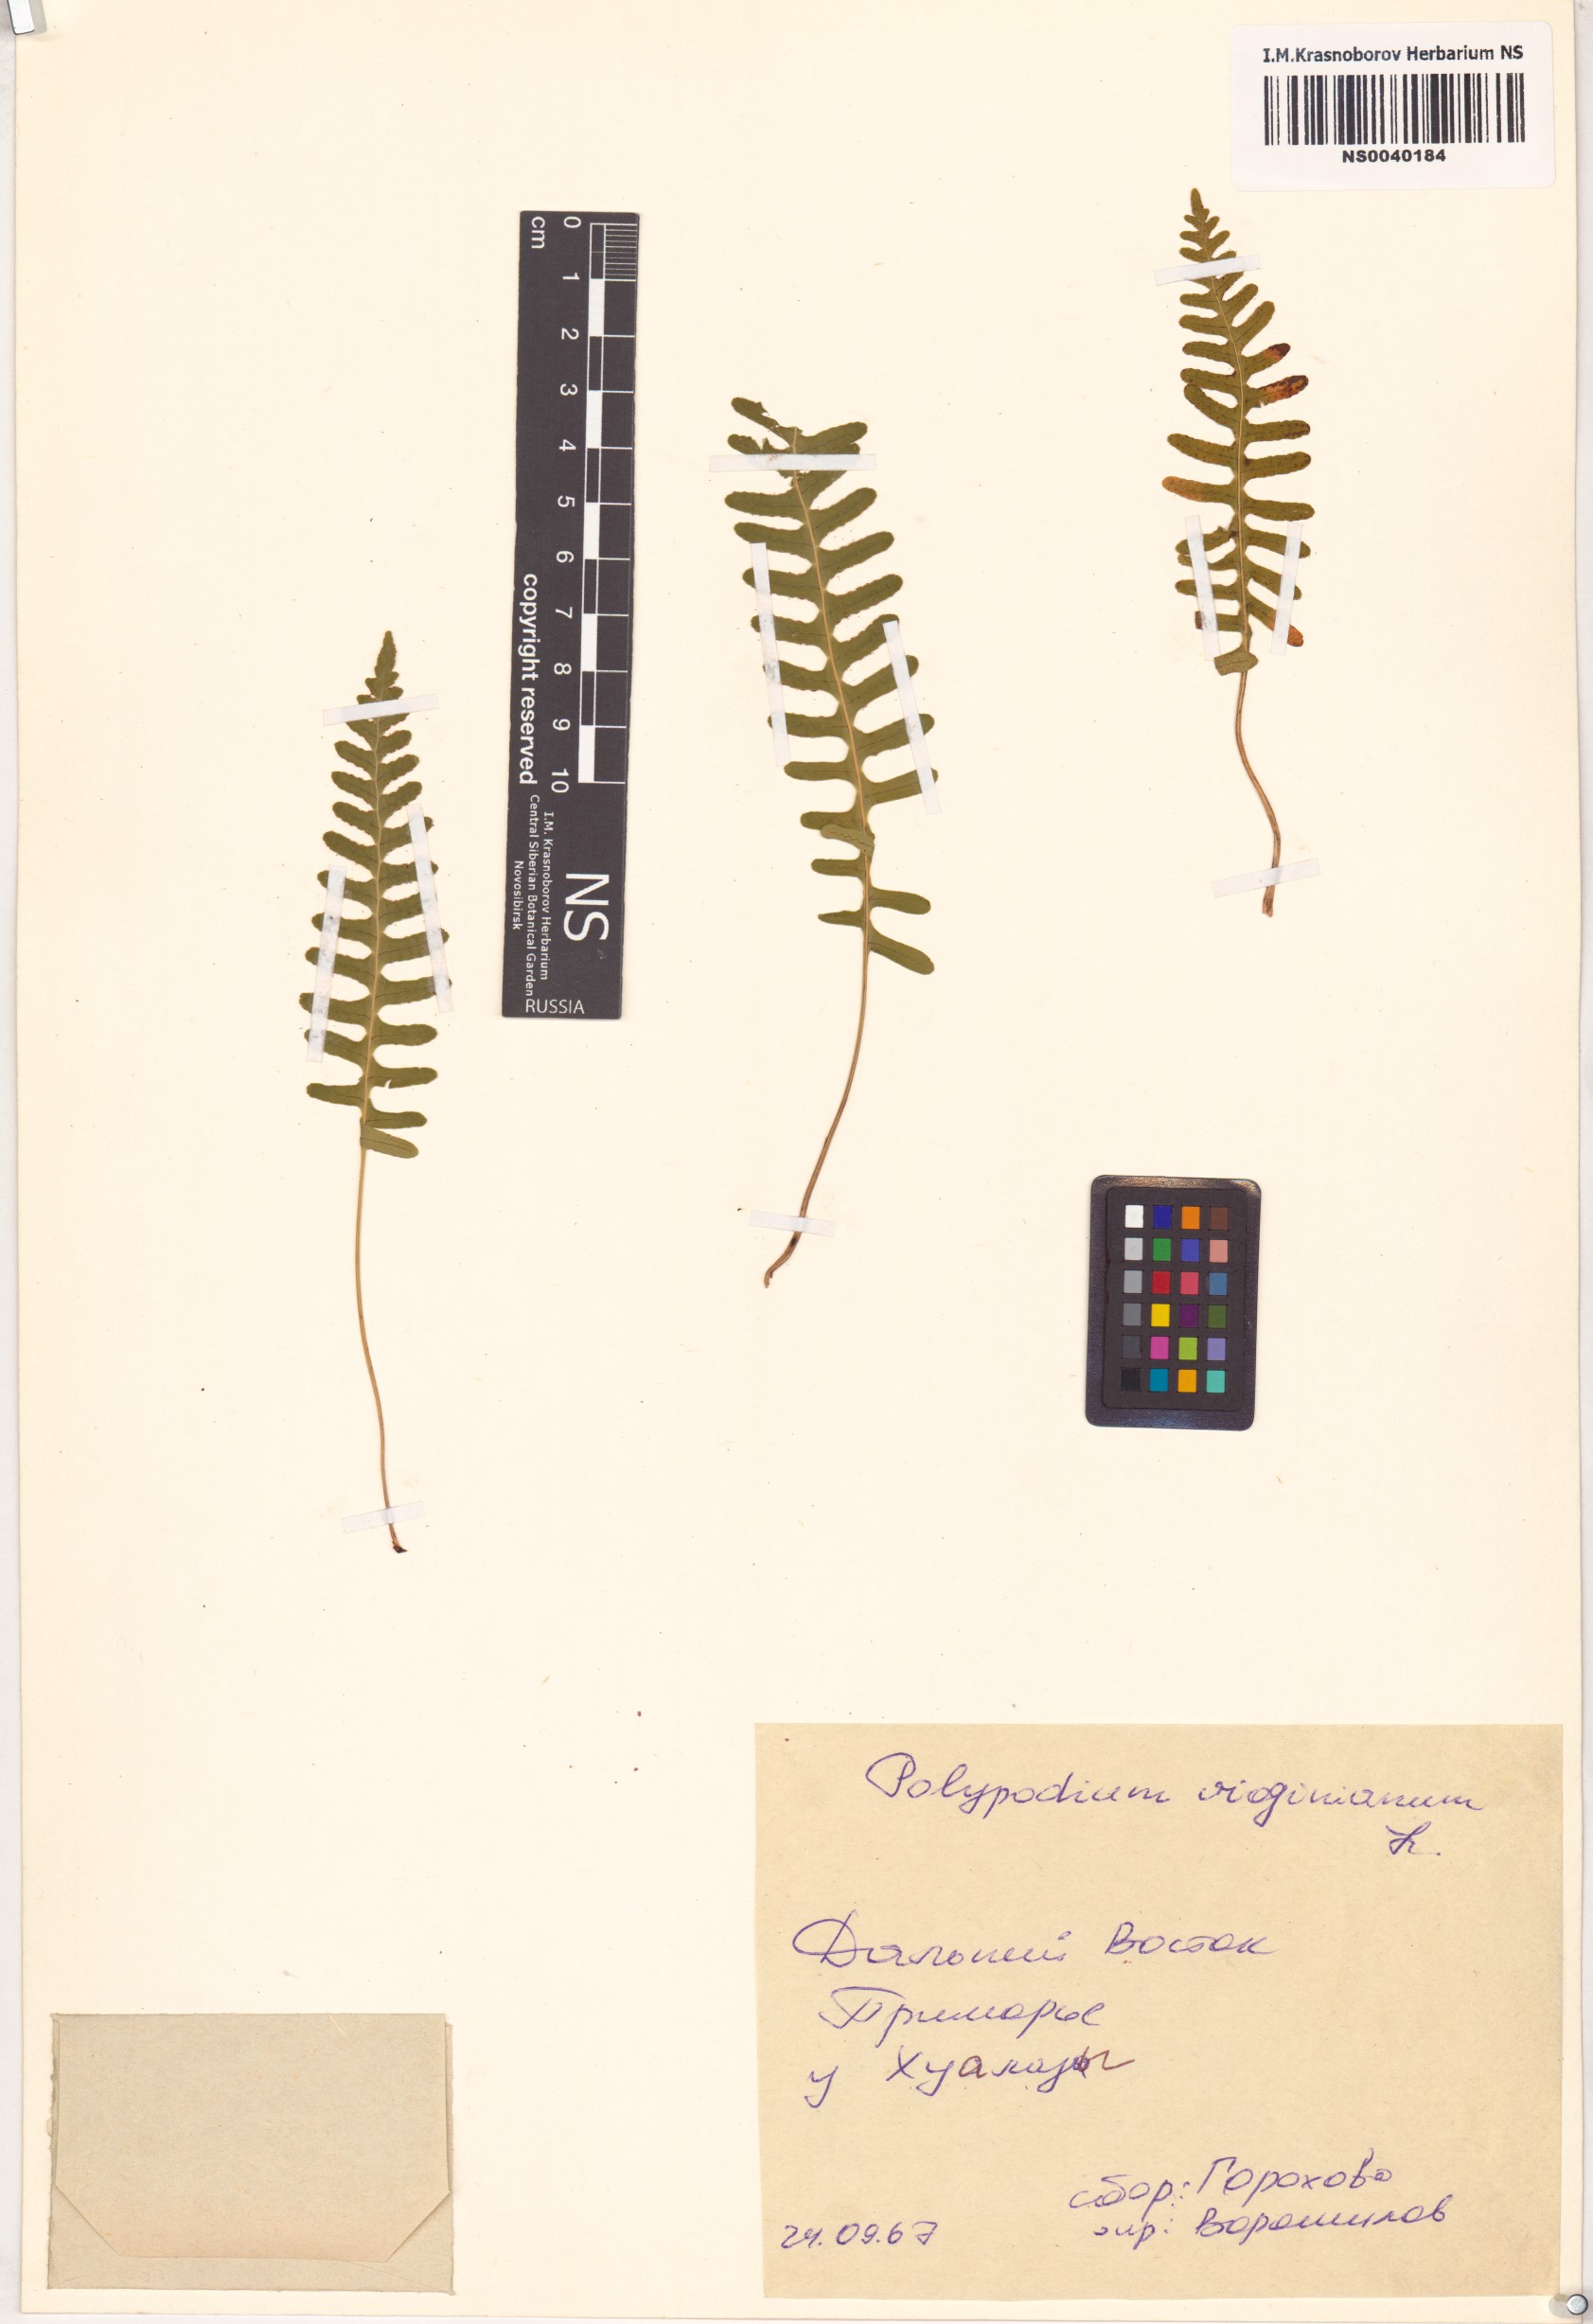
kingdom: Plantae
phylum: Tracheophyta
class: Polypodiopsida
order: Polypodiales
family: Polypodiaceae
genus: Polypodium
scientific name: Polypodium virginianum
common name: American wall fern
